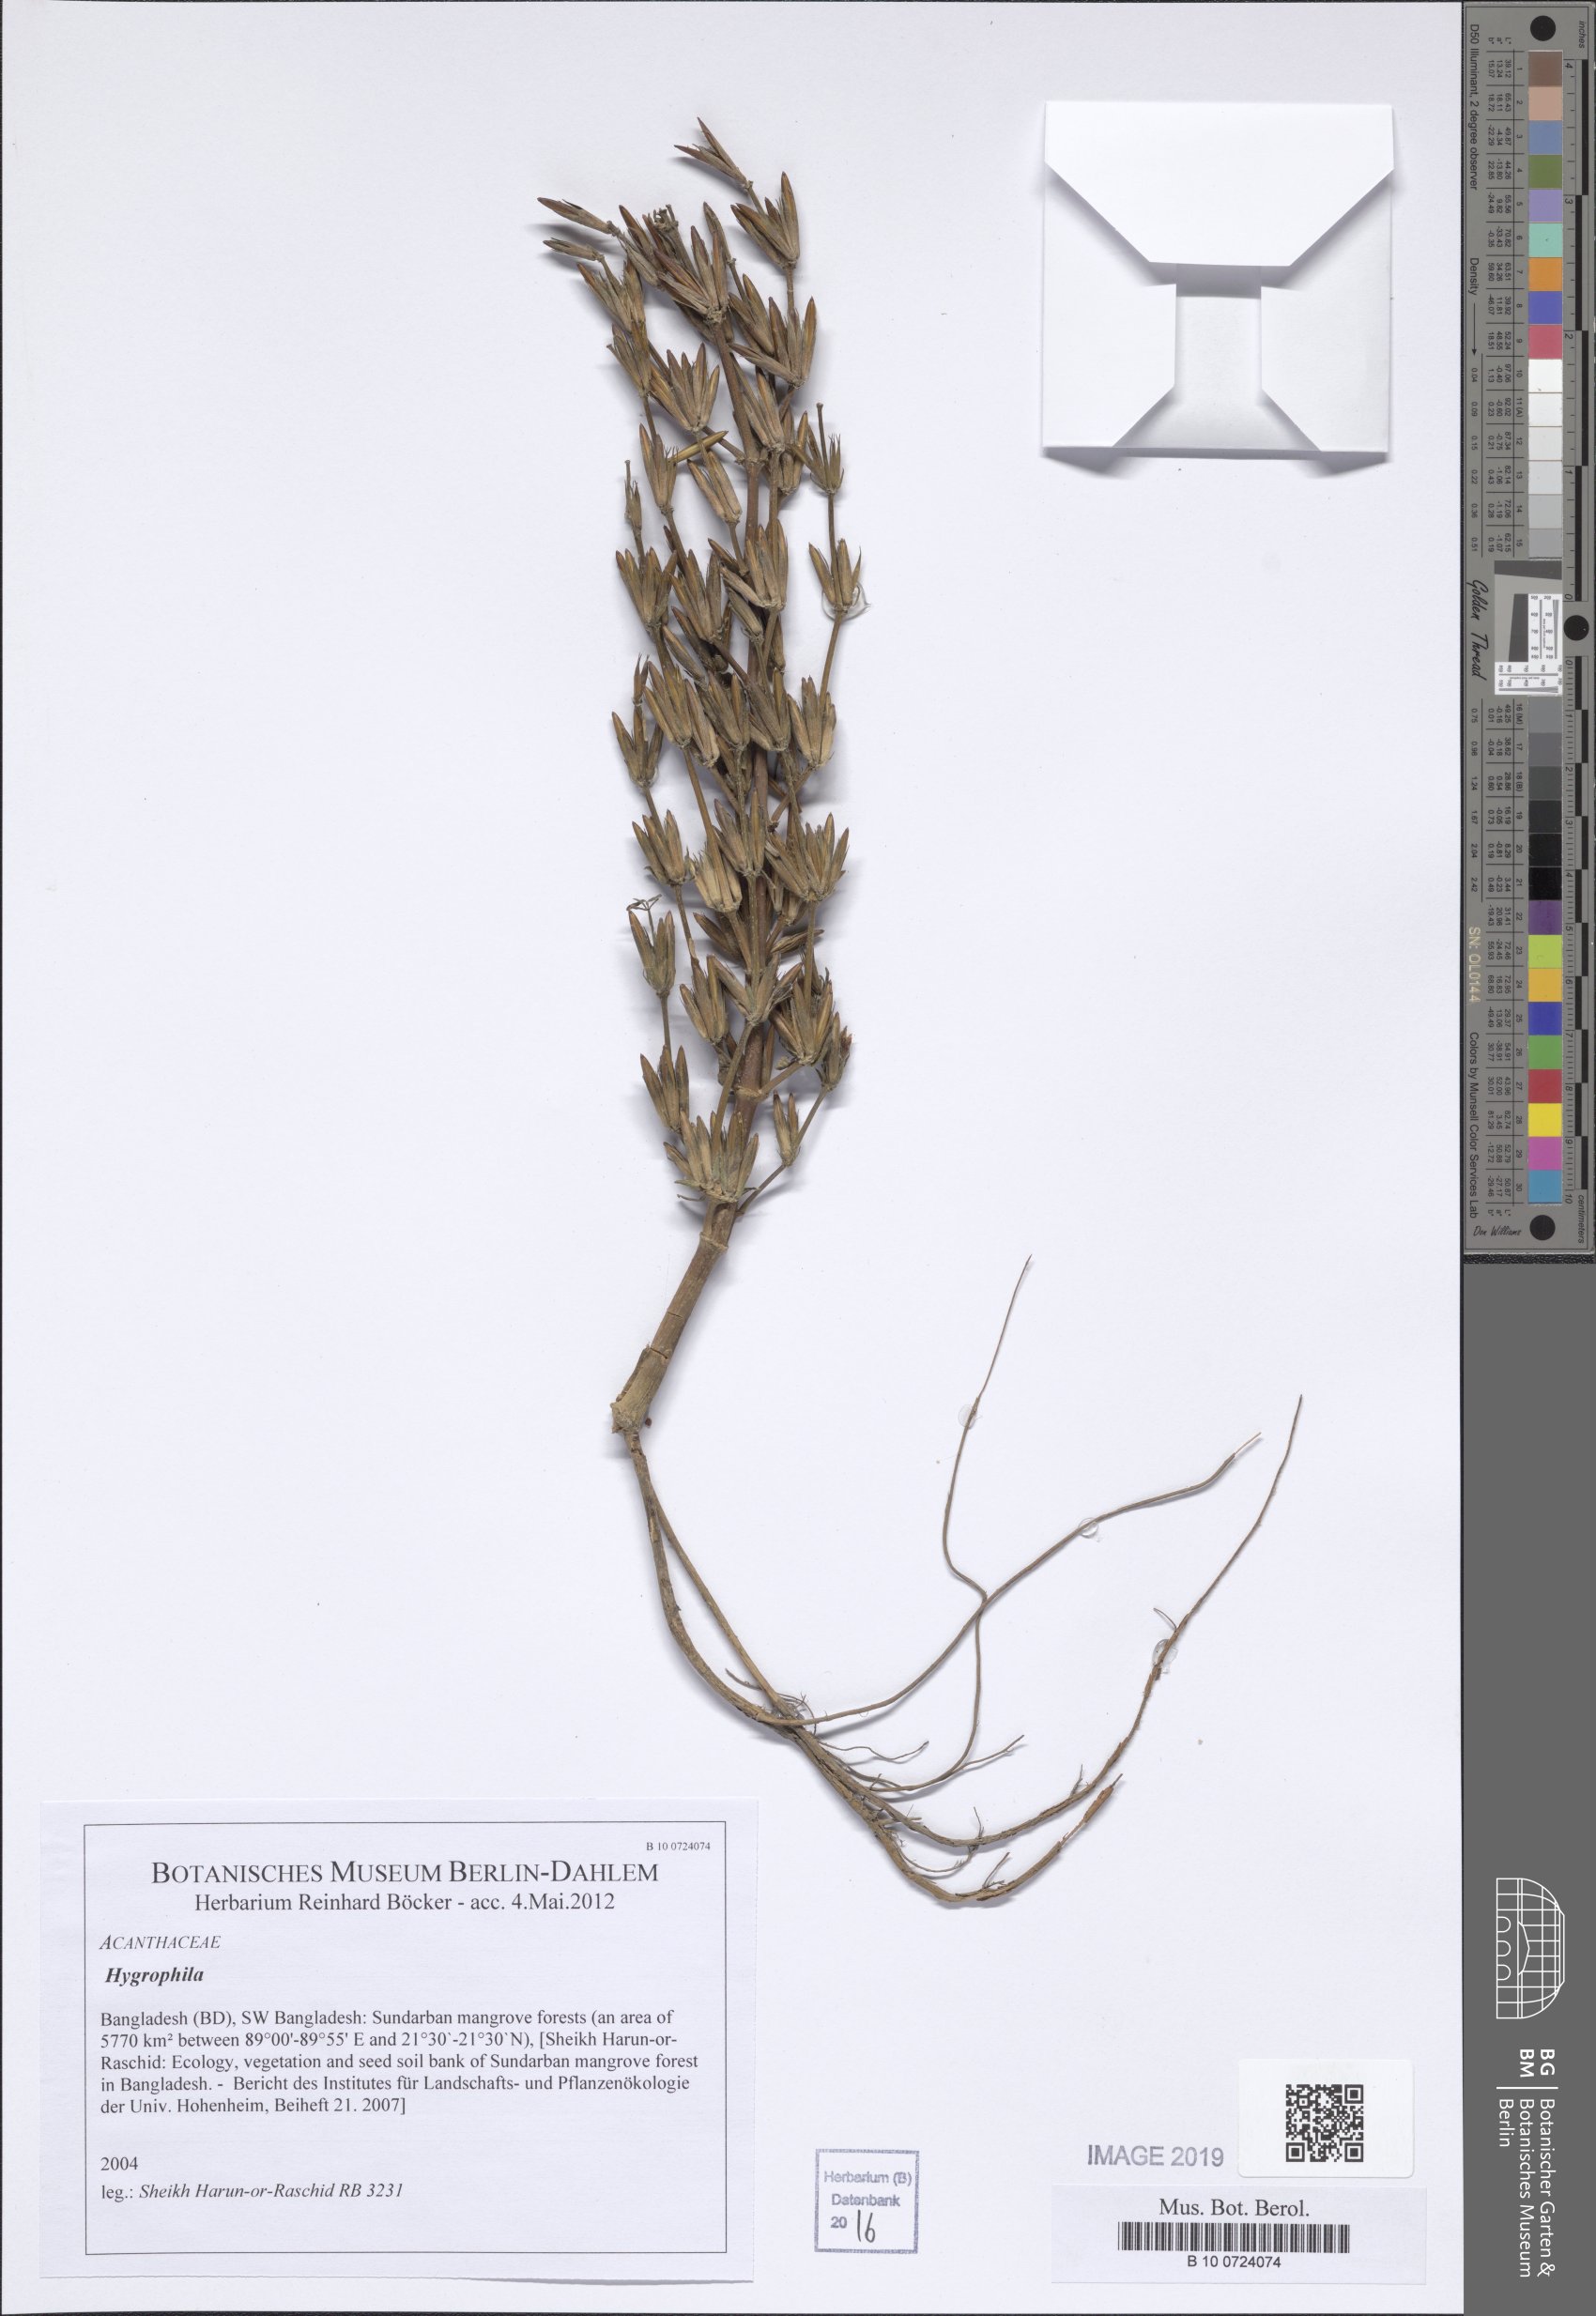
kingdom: Plantae
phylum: Tracheophyta
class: Magnoliopsida
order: Lamiales
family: Acanthaceae
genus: Hygrophila
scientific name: Hygrophila
